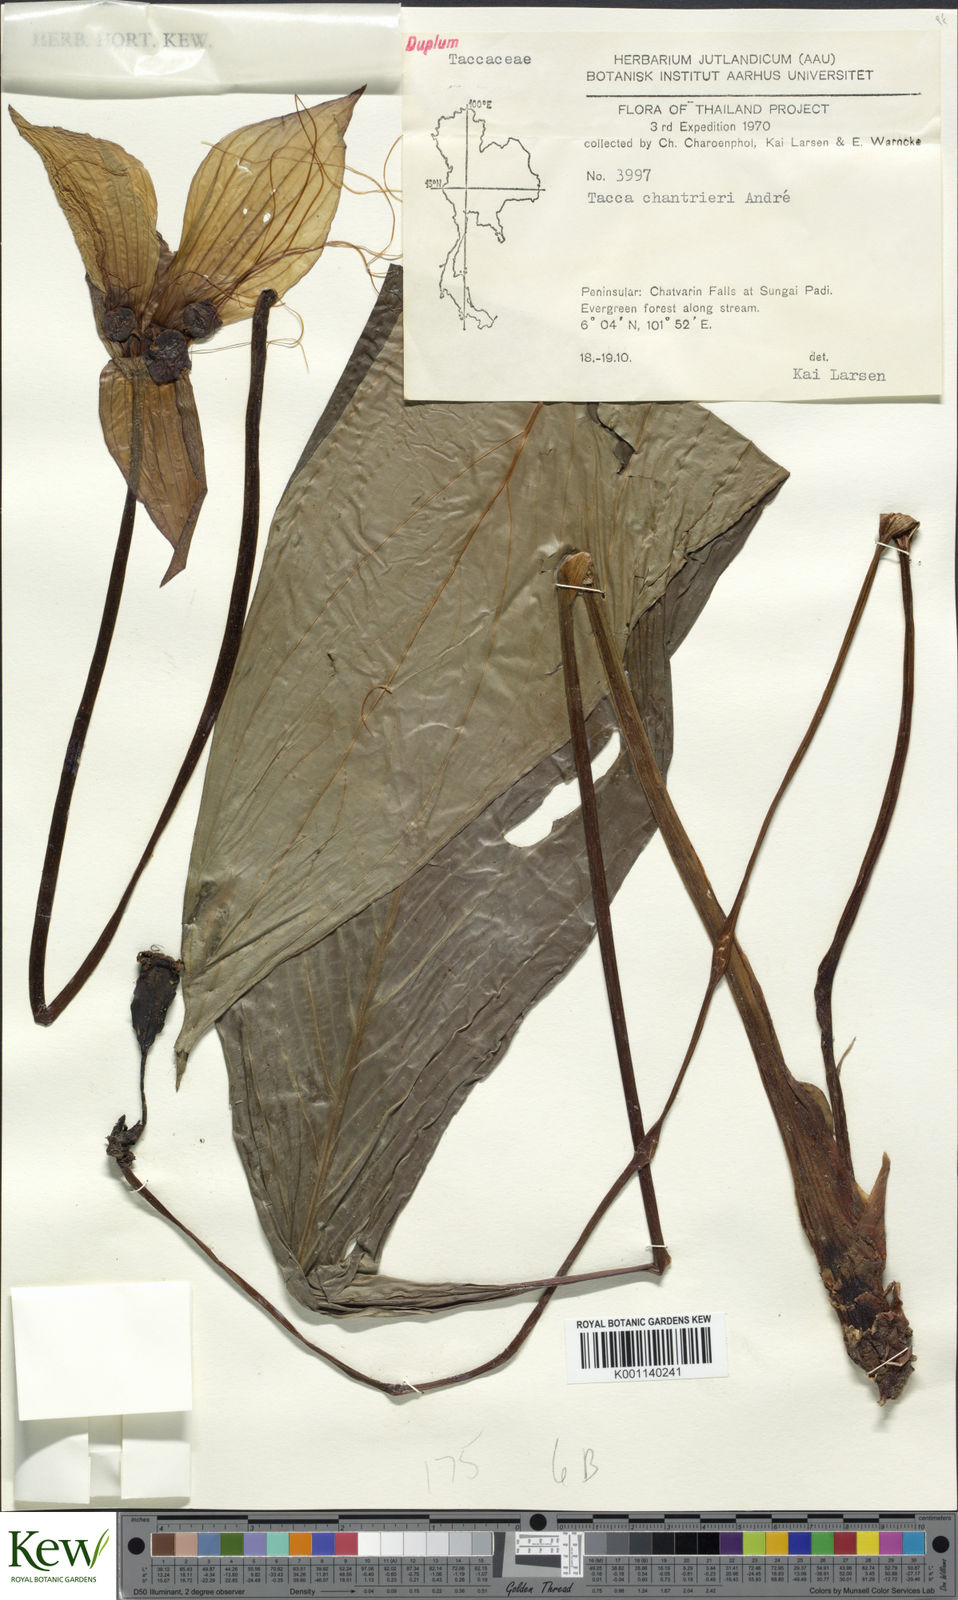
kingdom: Plantae
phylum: Tracheophyta
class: Liliopsida
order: Dioscoreales
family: Dioscoreaceae
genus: Tacca
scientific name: Tacca
